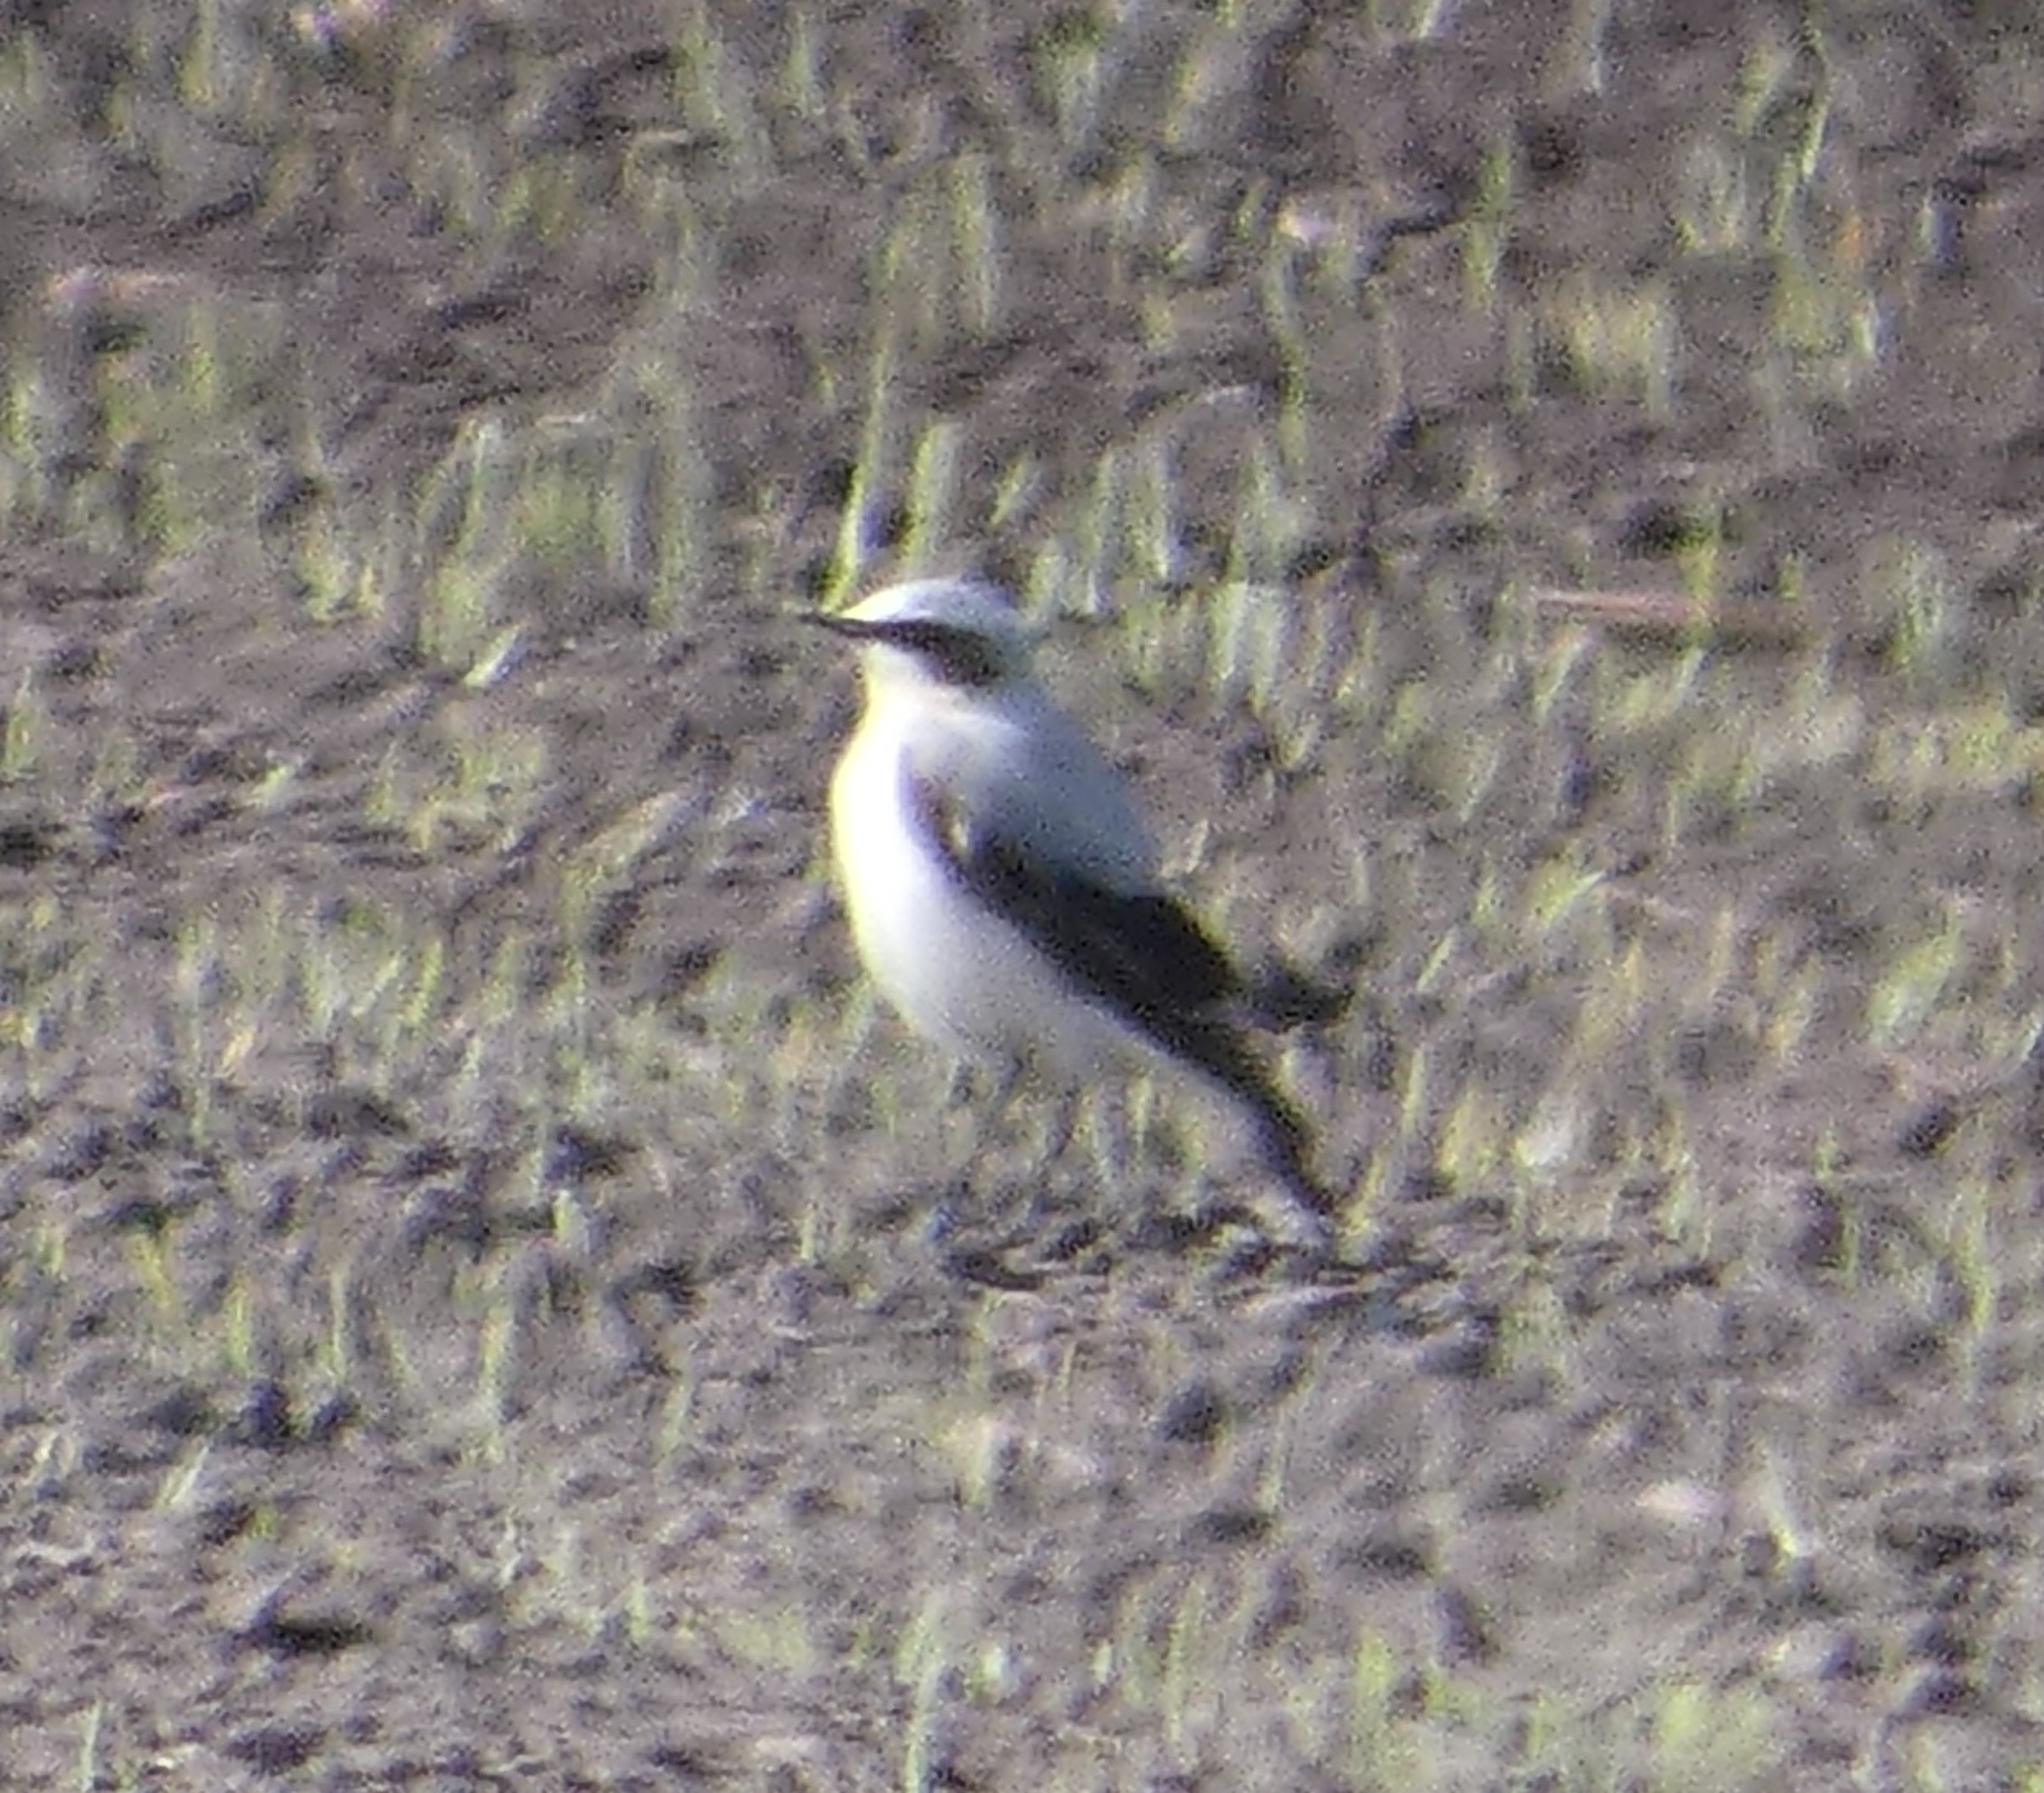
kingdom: Animalia
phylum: Chordata
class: Aves
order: Passeriformes
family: Muscicapidae
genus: Oenanthe
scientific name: Oenanthe oenanthe
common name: Stenpikker
